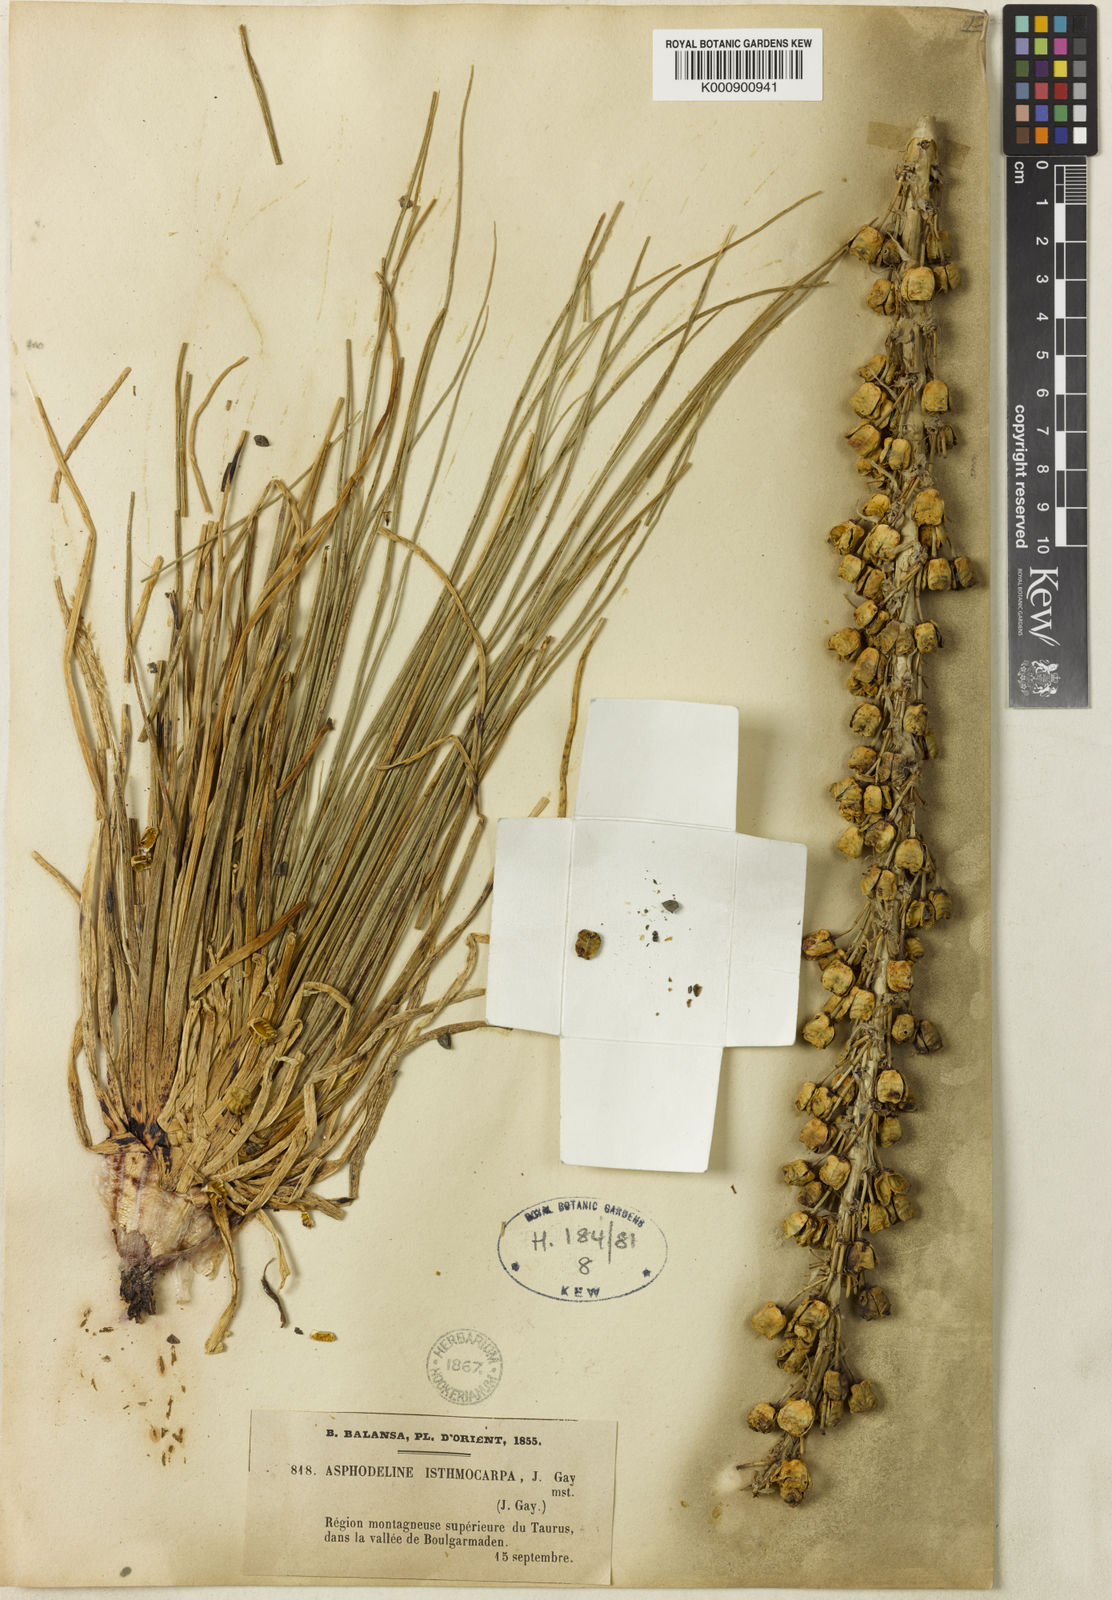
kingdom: Plantae
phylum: Tracheophyta
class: Liliopsida
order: Asparagales
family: Asphodelaceae
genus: Asphodeline
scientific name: Asphodeline damascena
